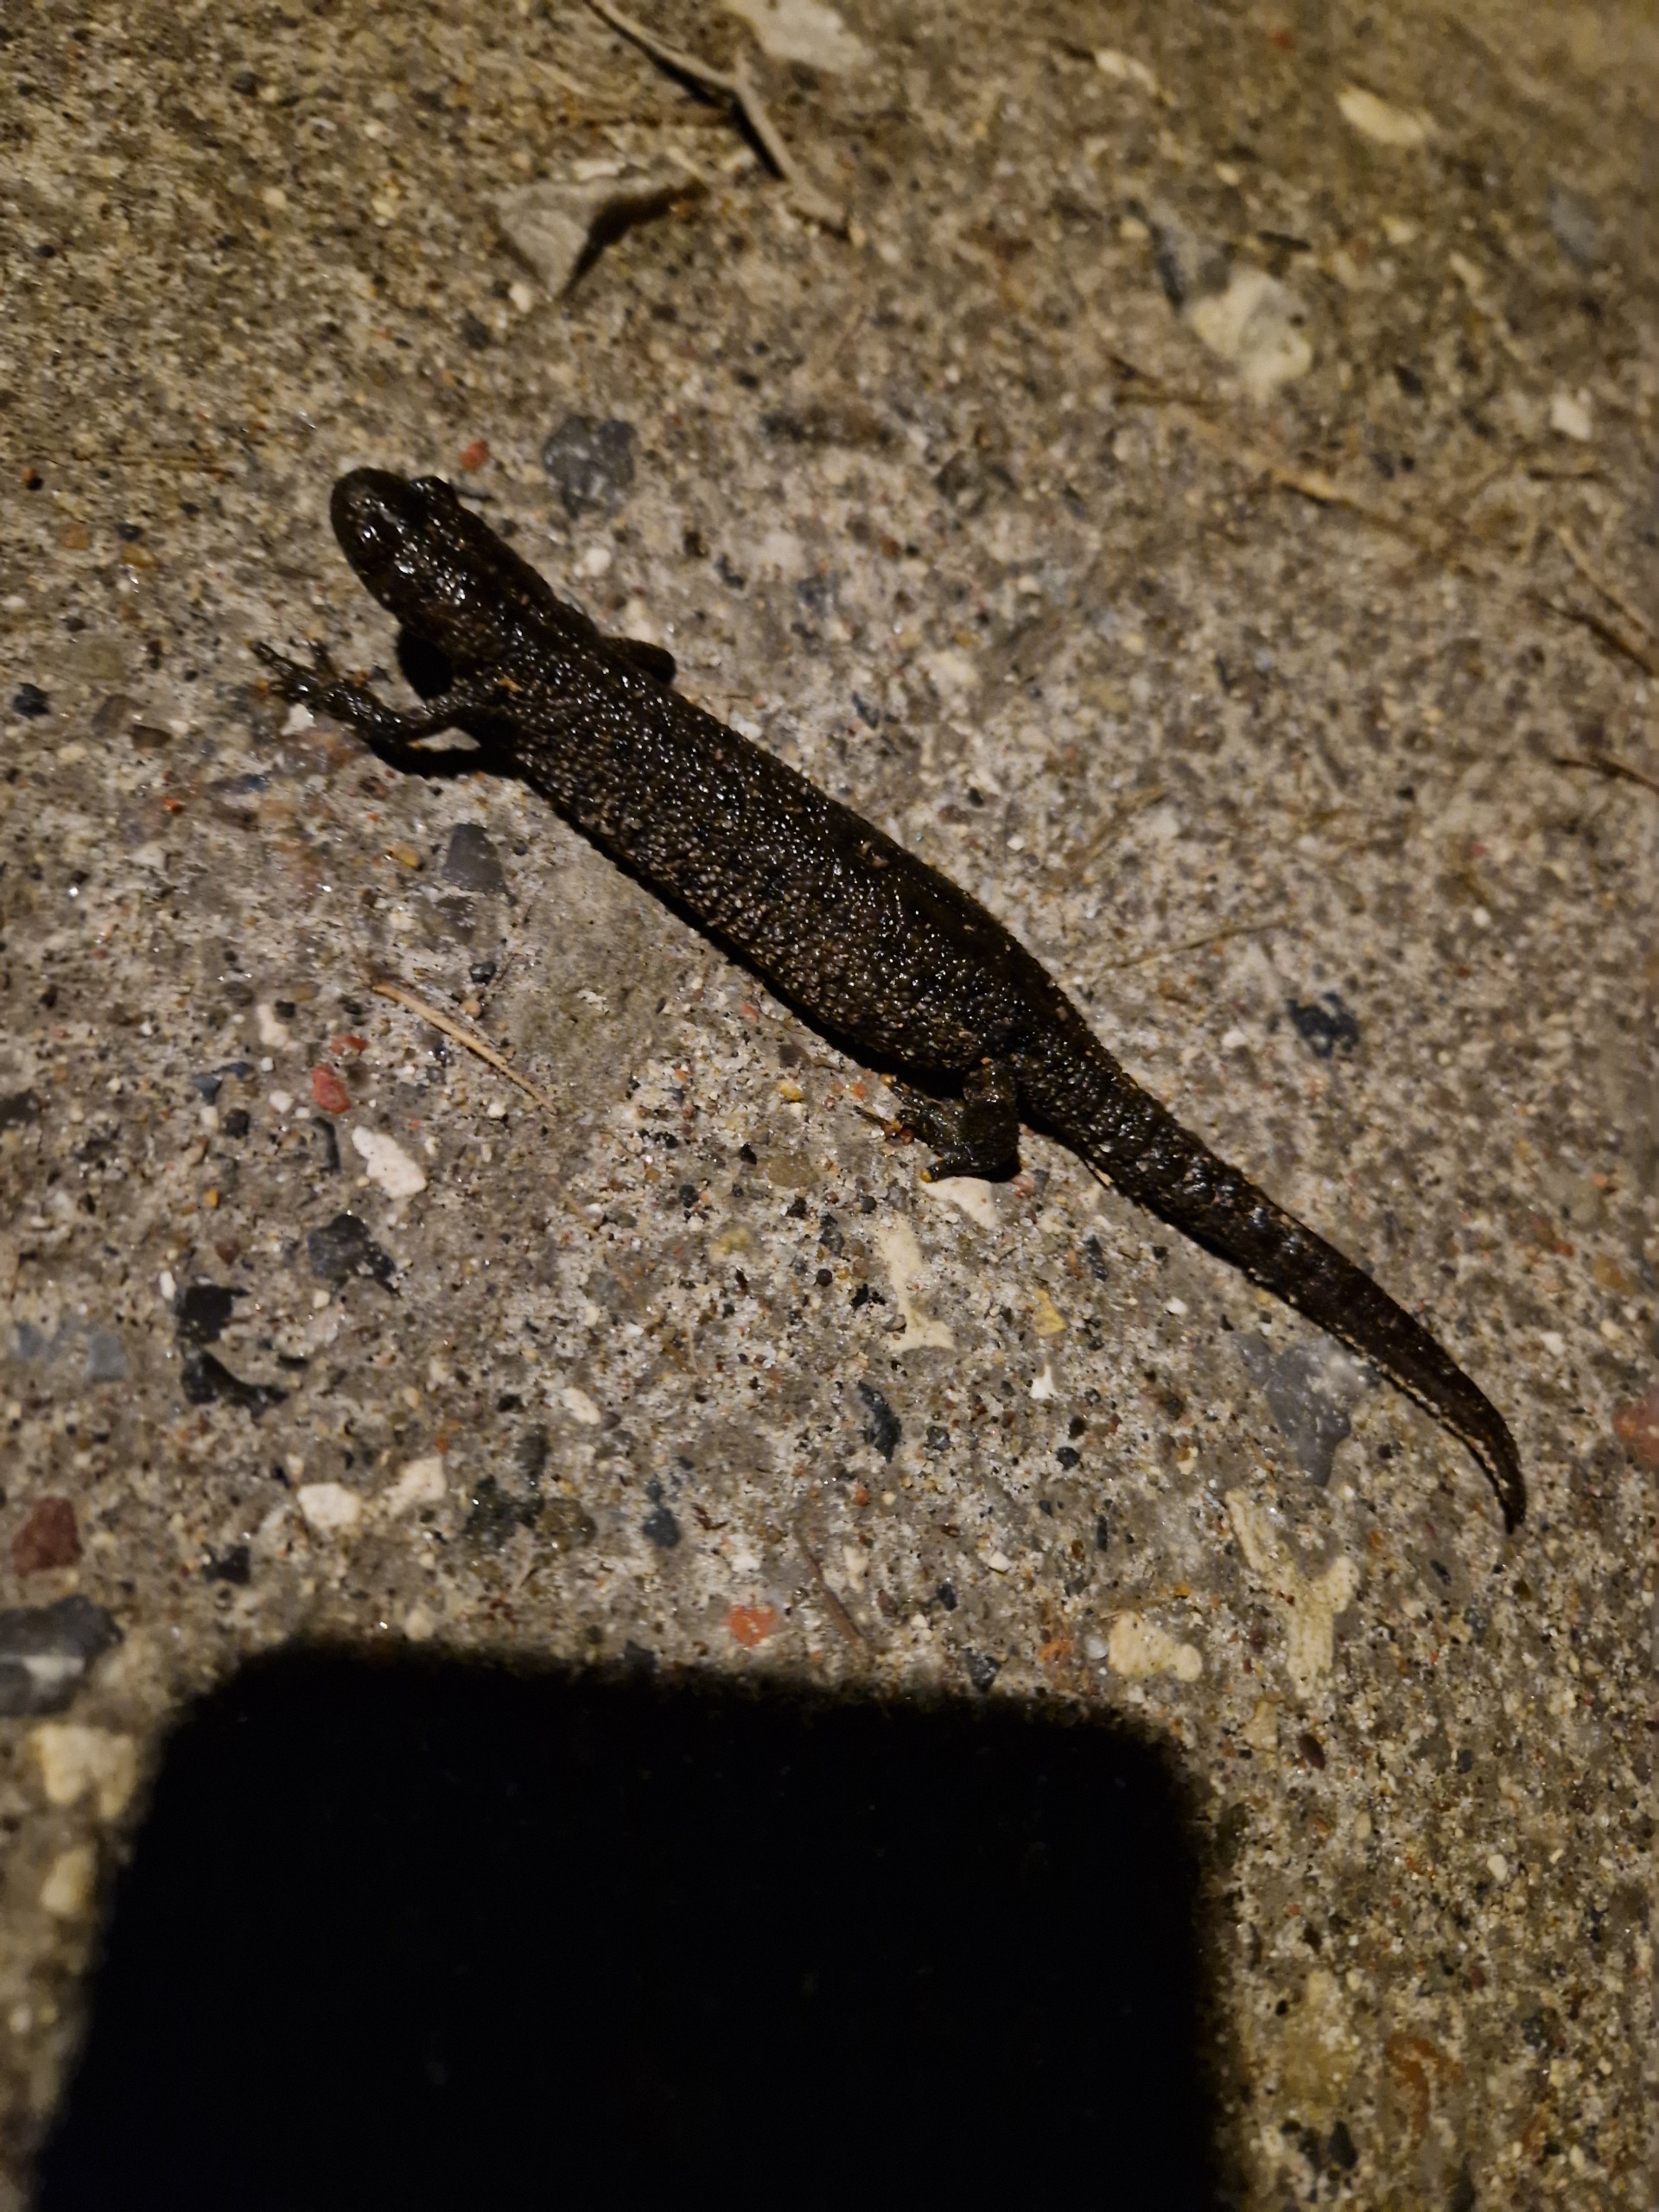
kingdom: Animalia
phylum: Chordata
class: Amphibia
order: Caudata
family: Salamandridae
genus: Triturus
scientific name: Triturus cristatus
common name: Stor vandsalamander
